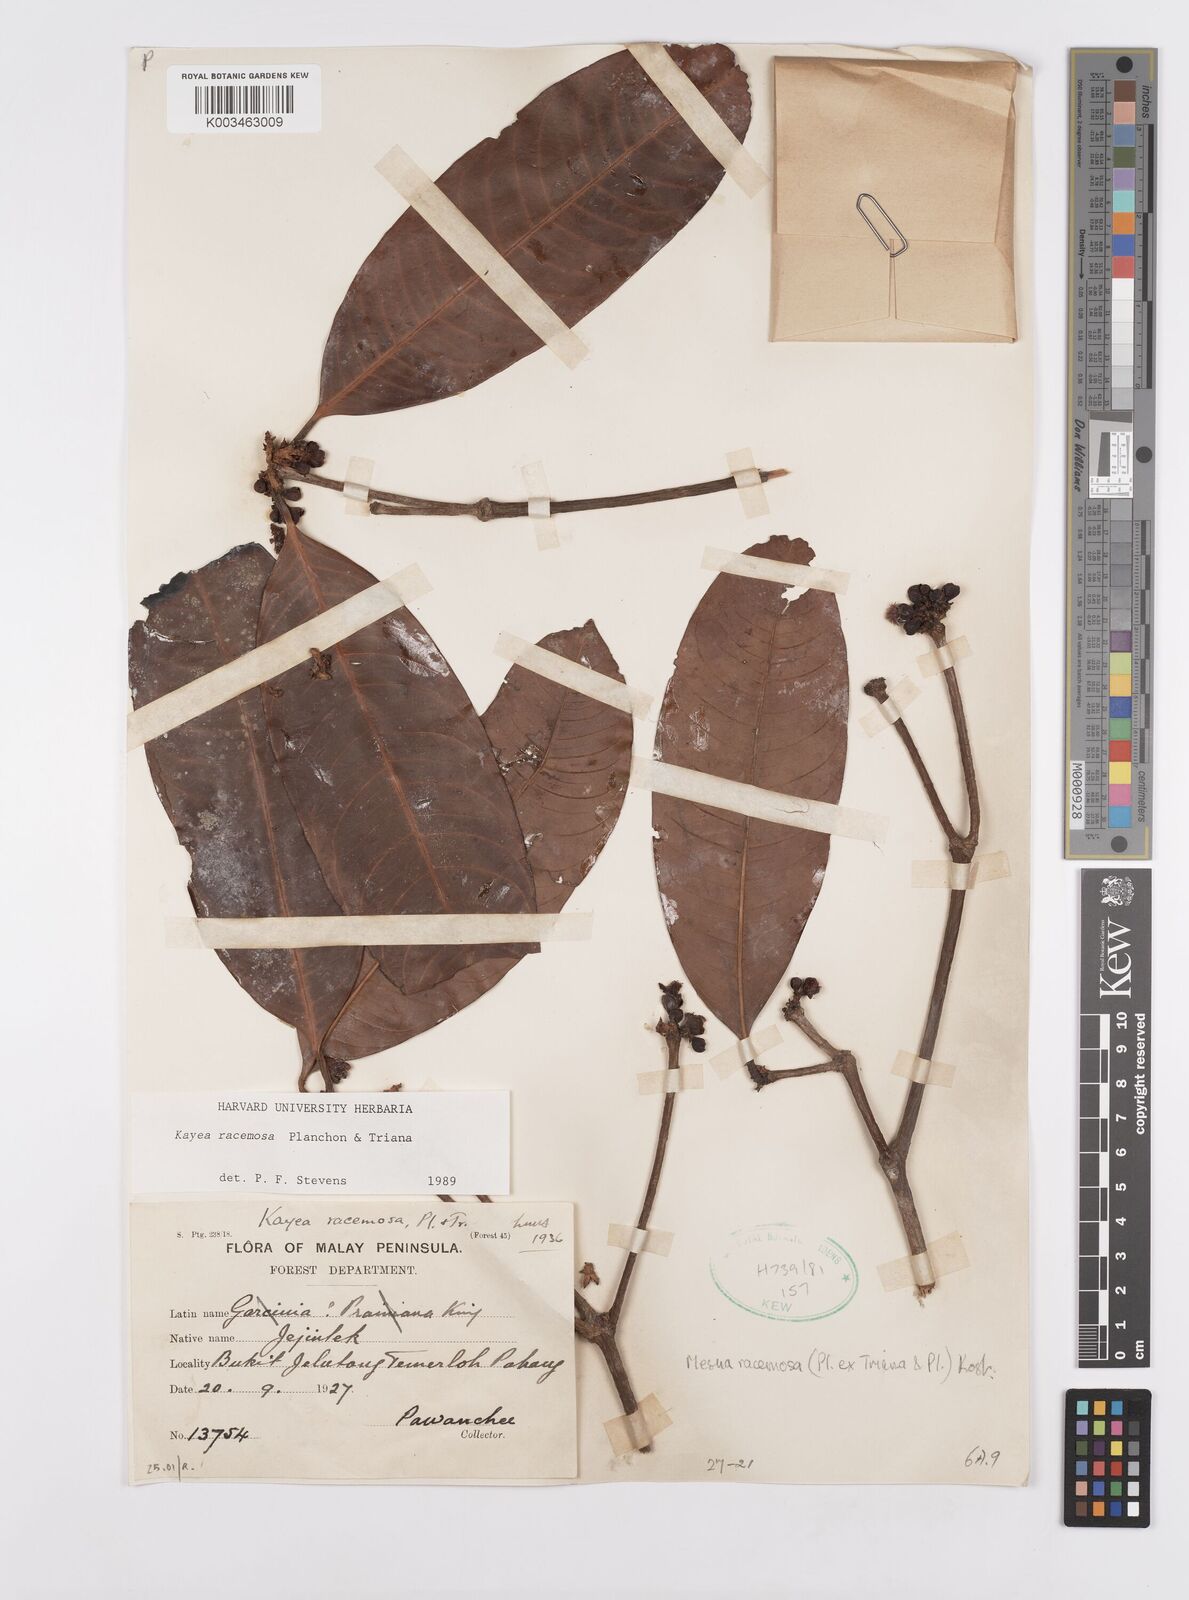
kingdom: Plantae
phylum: Tracheophyta
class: Magnoliopsida
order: Malpighiales
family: Calophyllaceae
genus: Kayea
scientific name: Kayea racemosa
